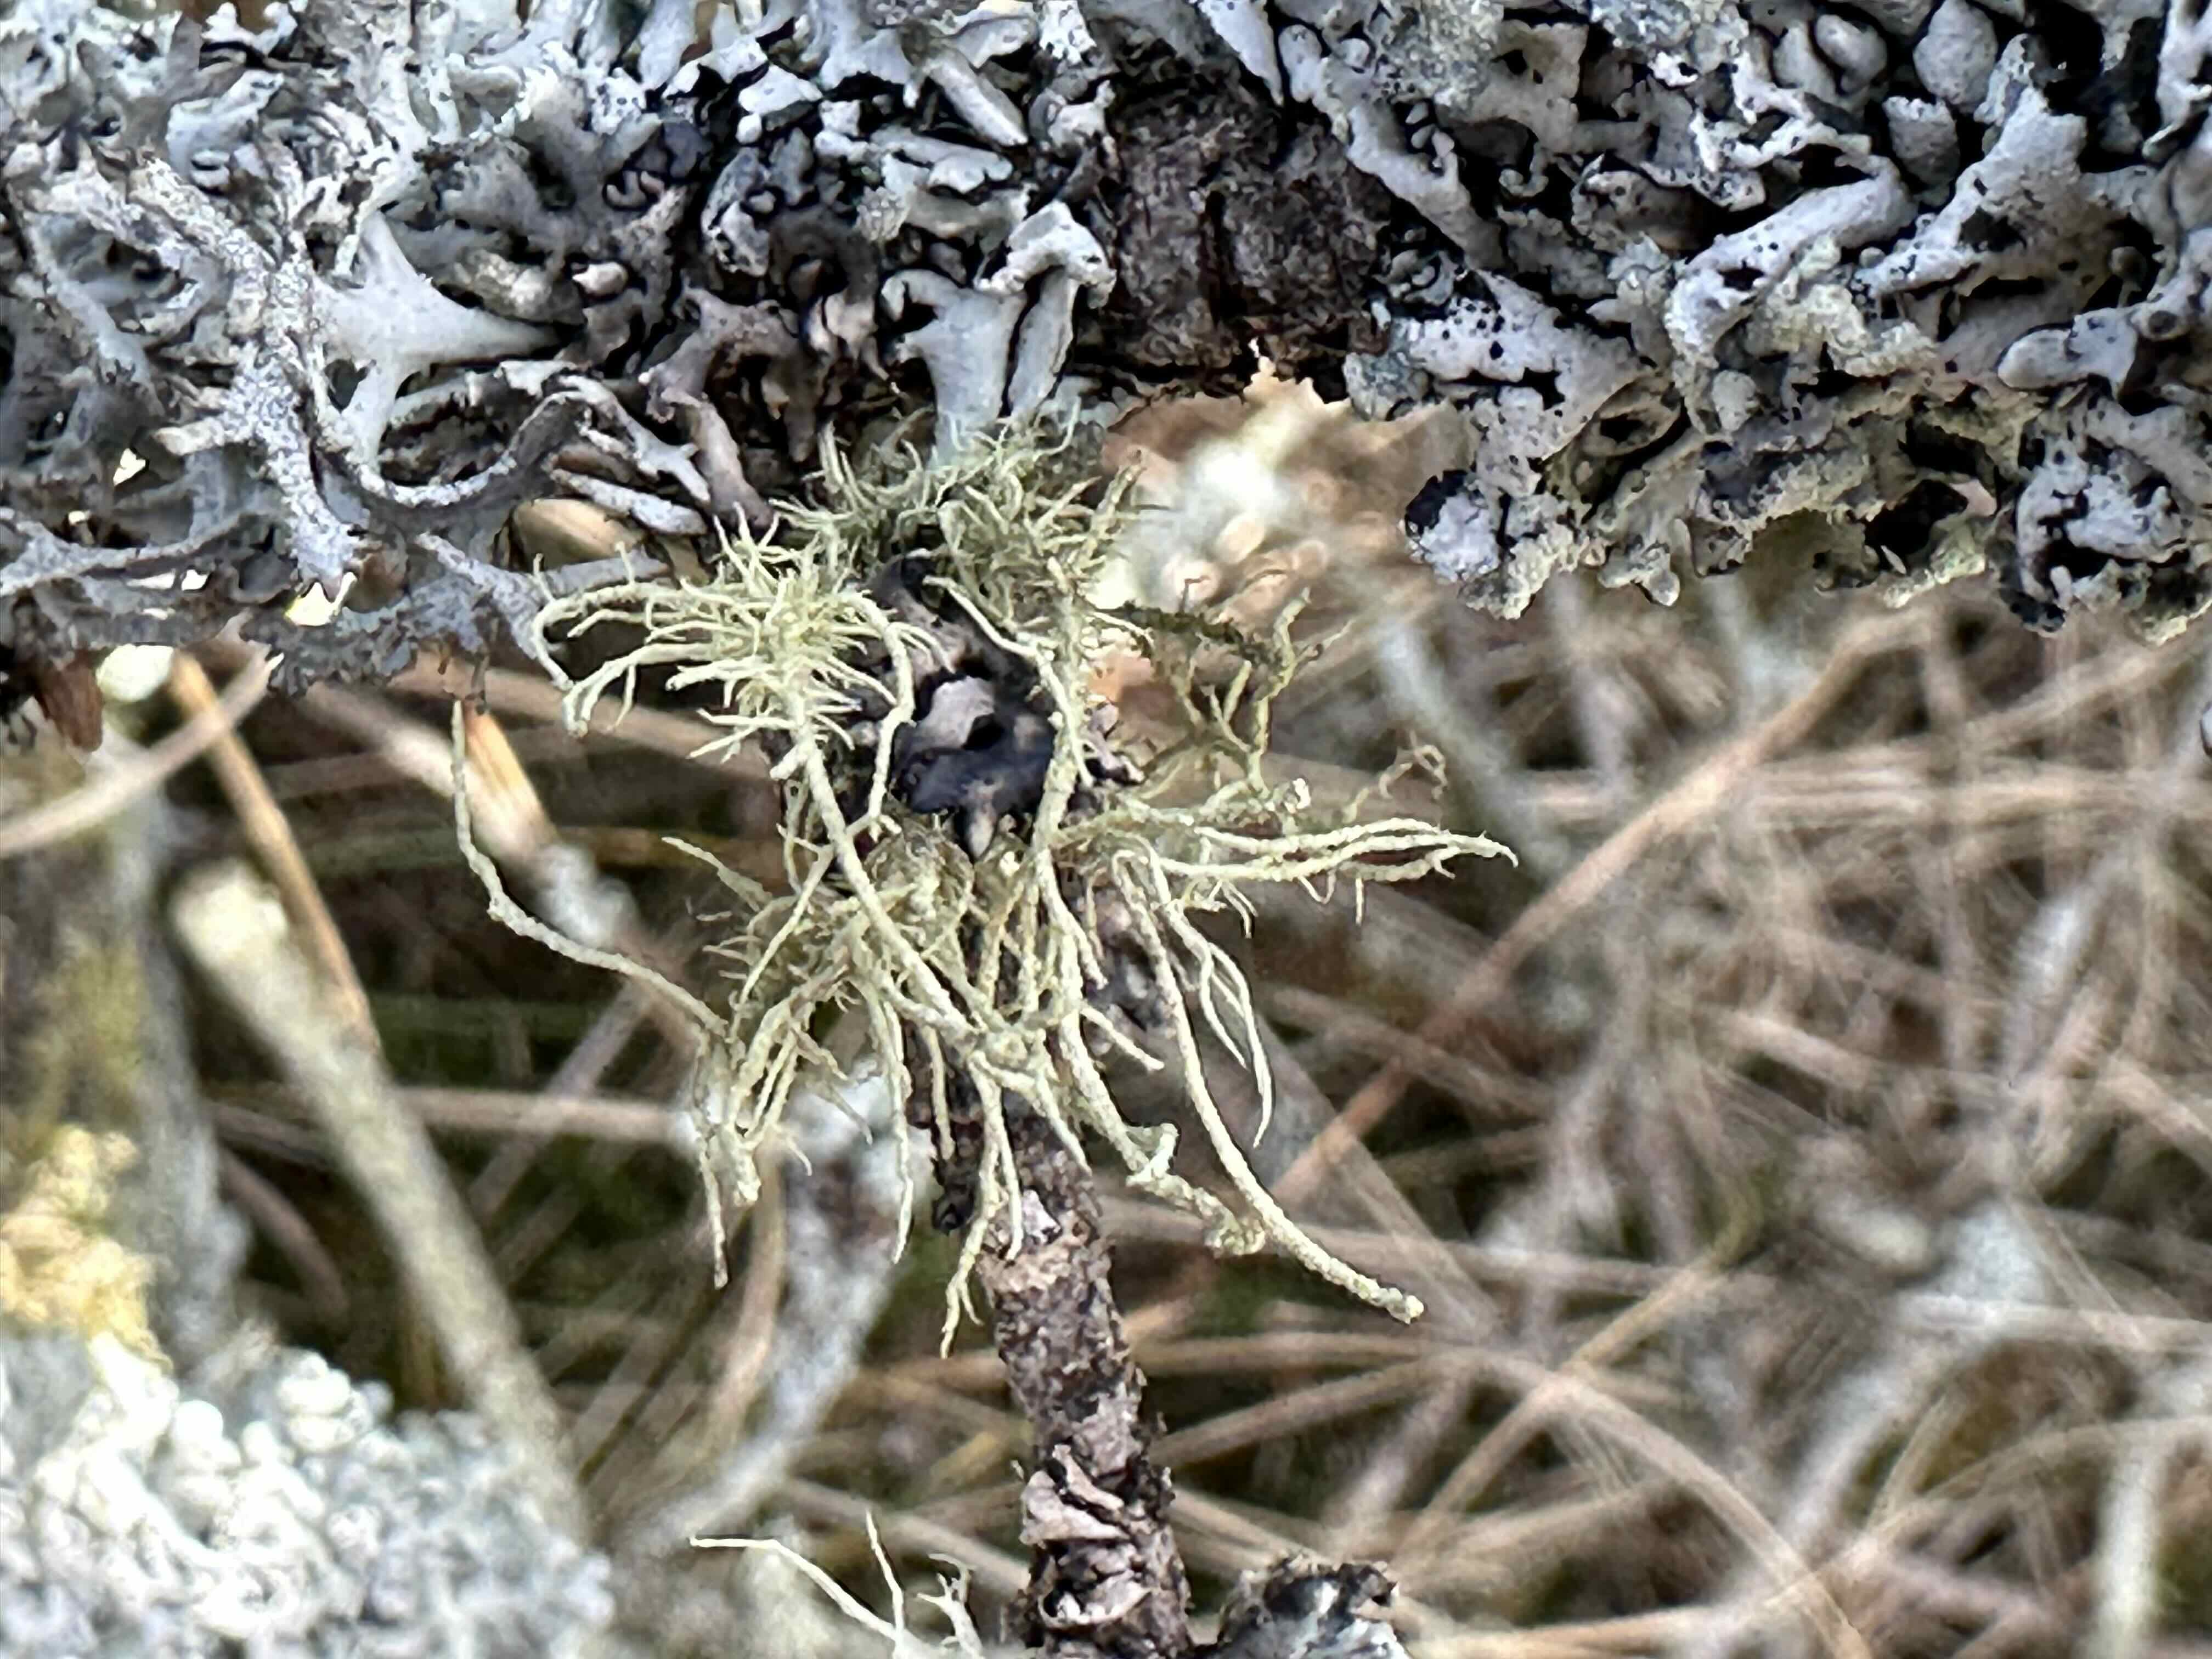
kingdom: Fungi
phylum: Ascomycota
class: Lecanoromycetes
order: Lecanorales
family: Parmeliaceae
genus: Usnea
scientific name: Usnea hirta
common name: liden skæglav
